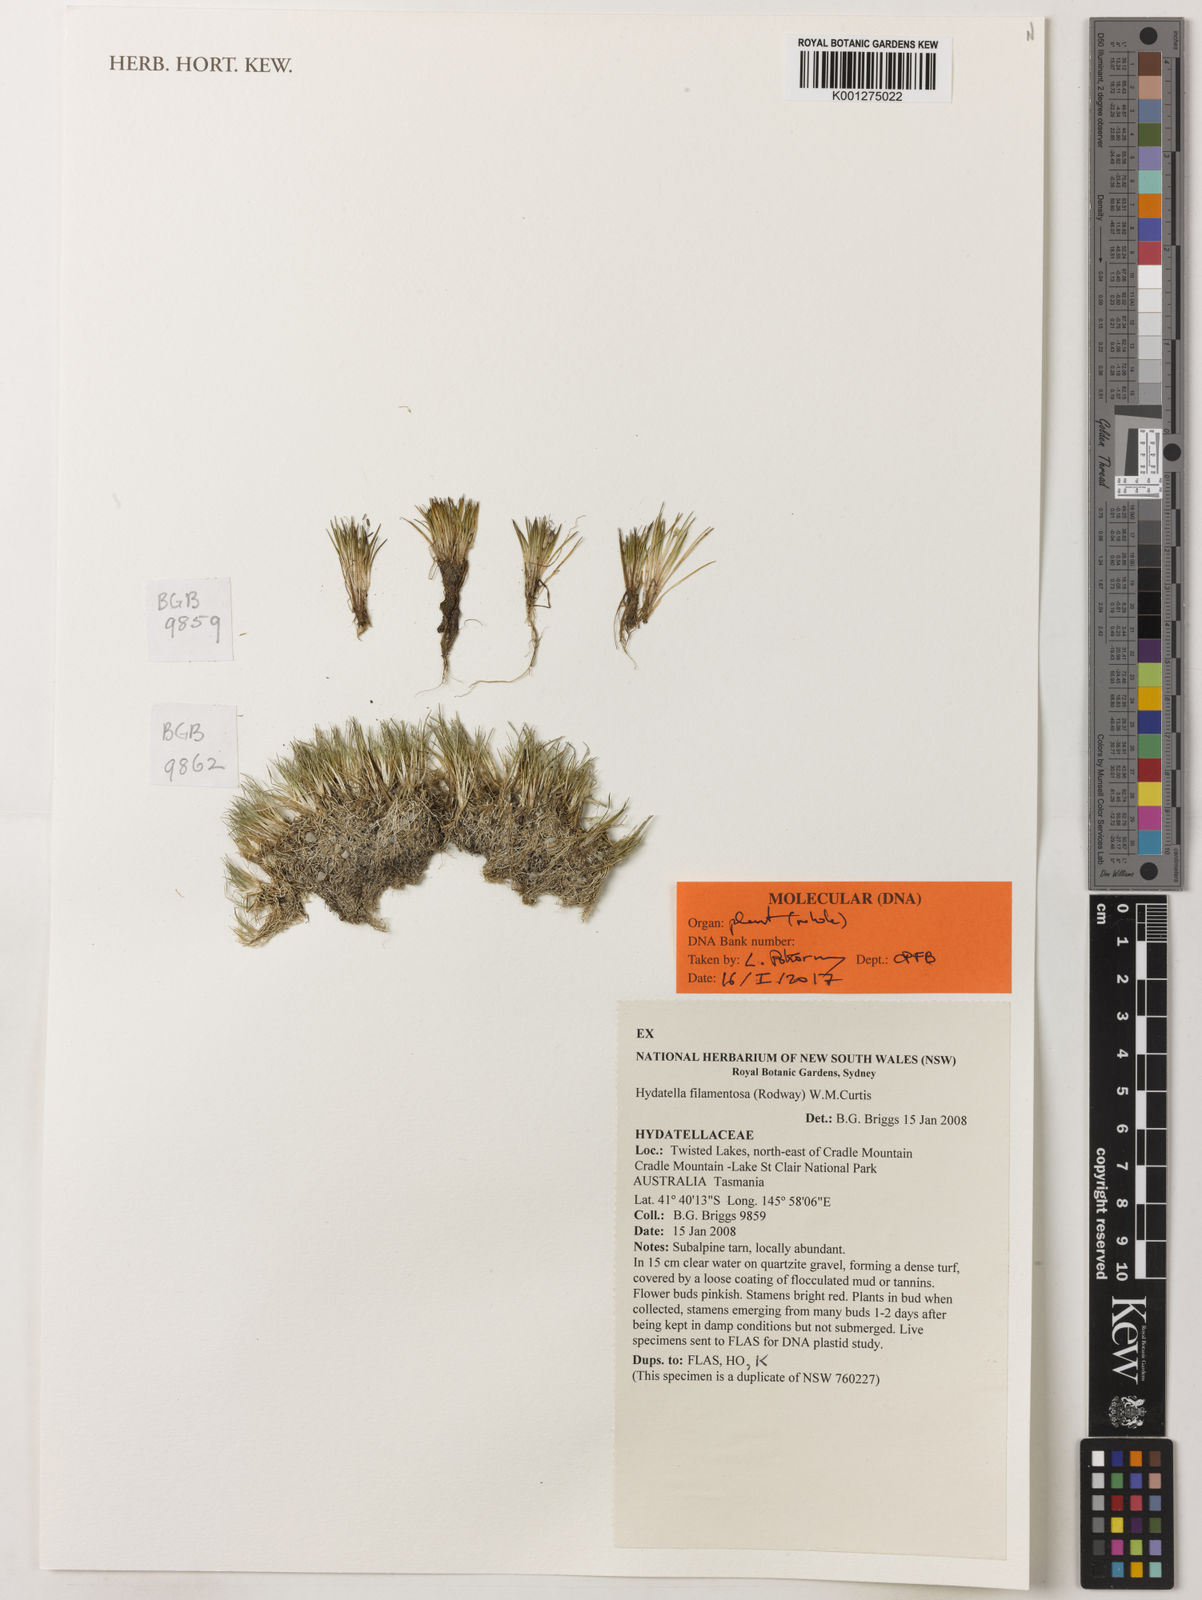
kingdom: Plantae
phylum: Tracheophyta
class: Magnoliopsida
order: Nymphaeales
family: Hydatellaceae
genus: Trithuria
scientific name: Trithuria filamentosa
